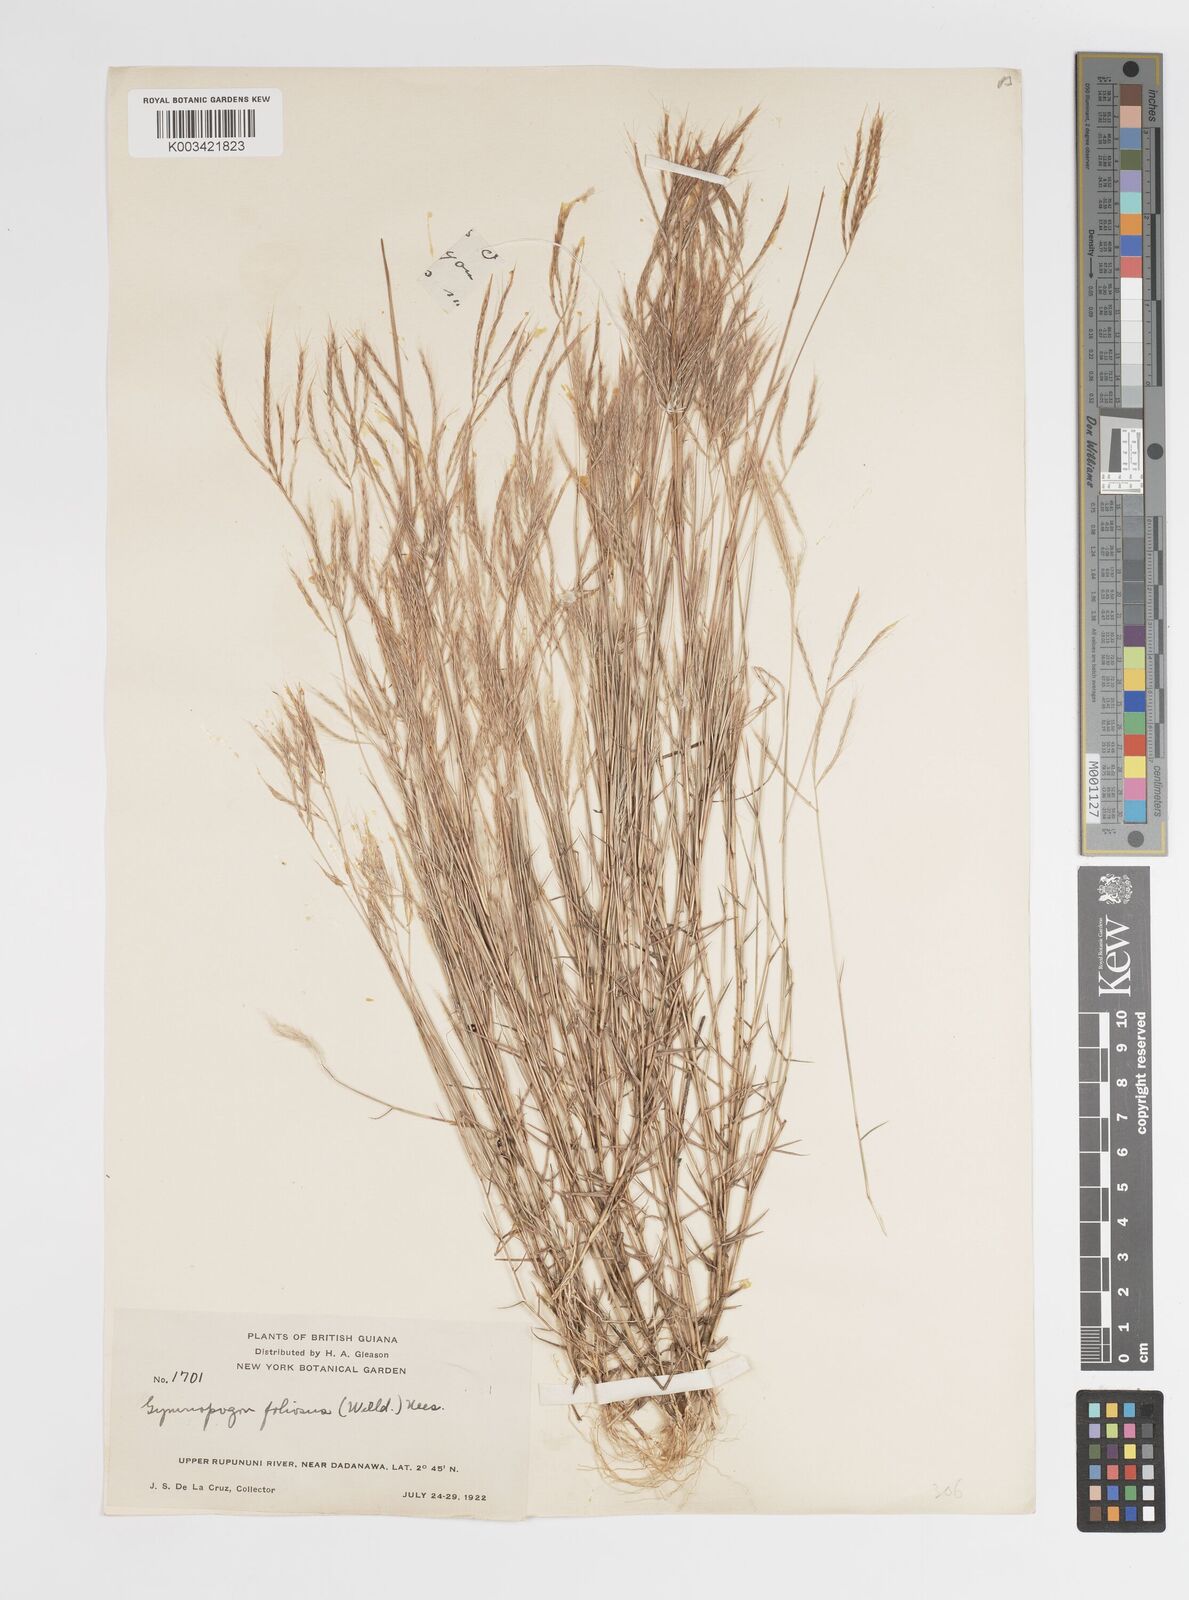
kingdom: Plantae
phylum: Tracheophyta
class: Liliopsida
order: Poales
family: Poaceae
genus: Gymnopogon
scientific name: Gymnopogon foliosus
